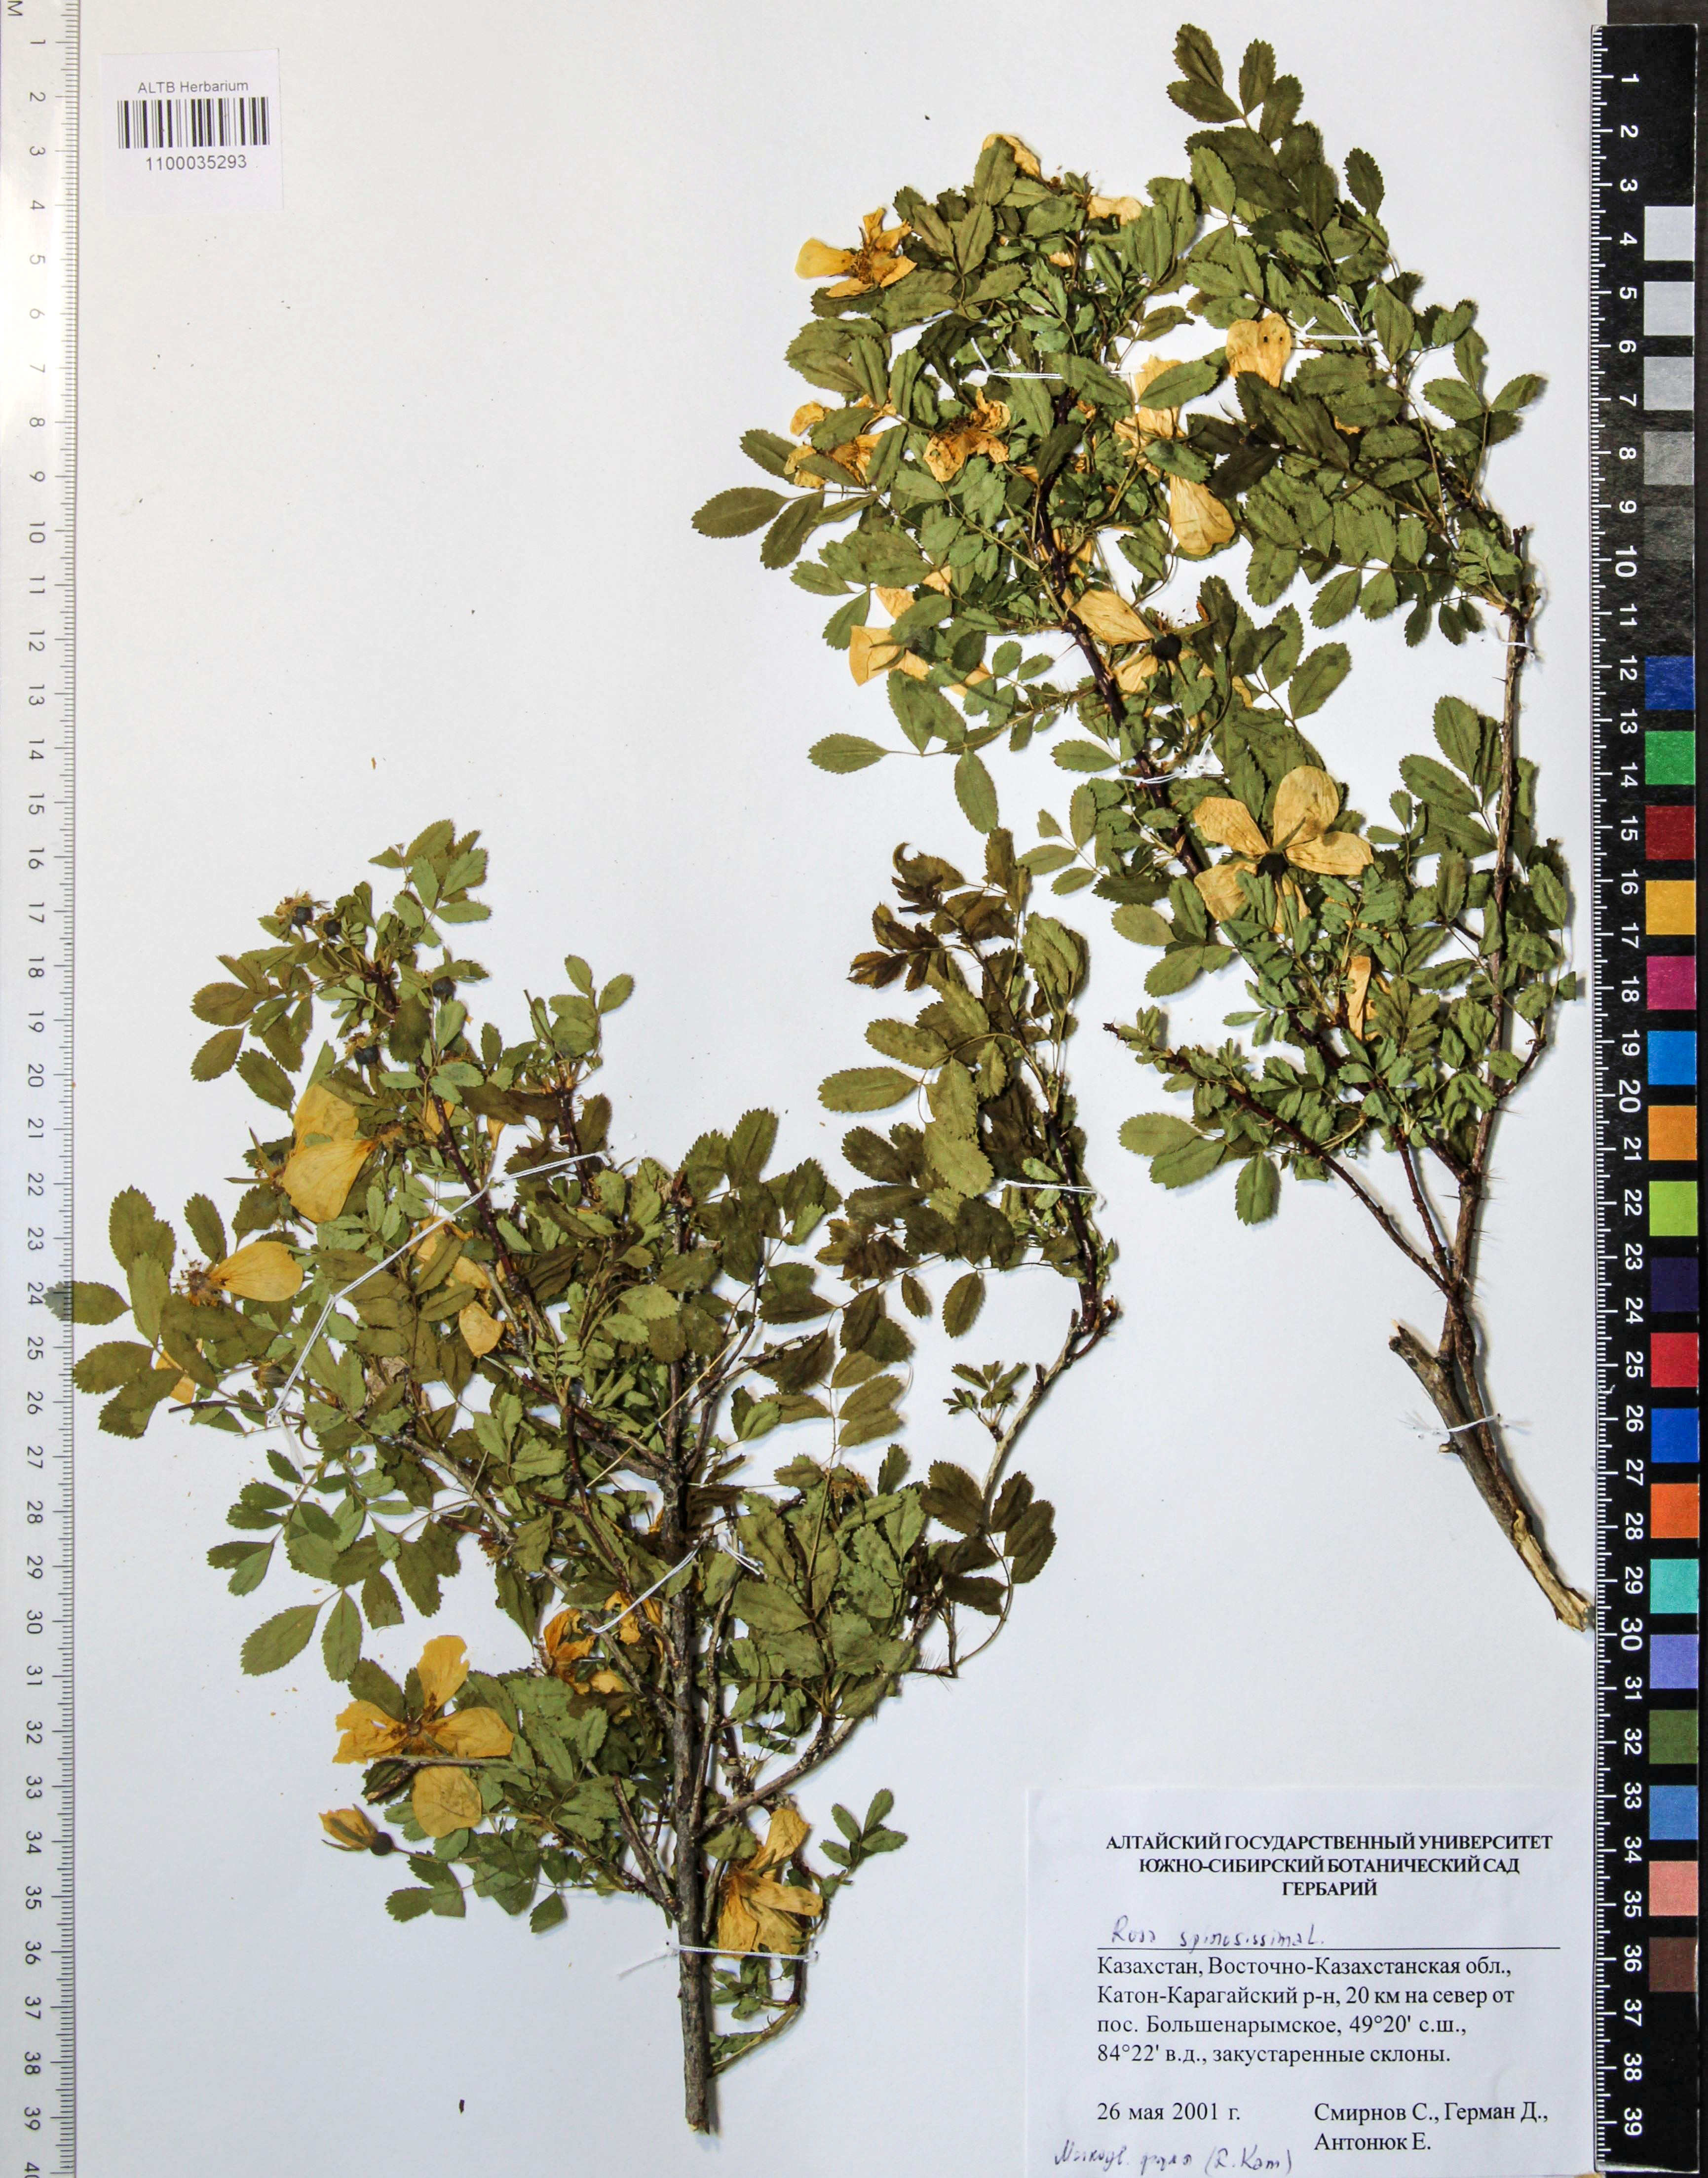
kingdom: Plantae
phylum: Tracheophyta
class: Magnoliopsida
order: Rosales
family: Rosaceae
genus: Rosa
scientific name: Rosa spinosissima
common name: Burnet rose
